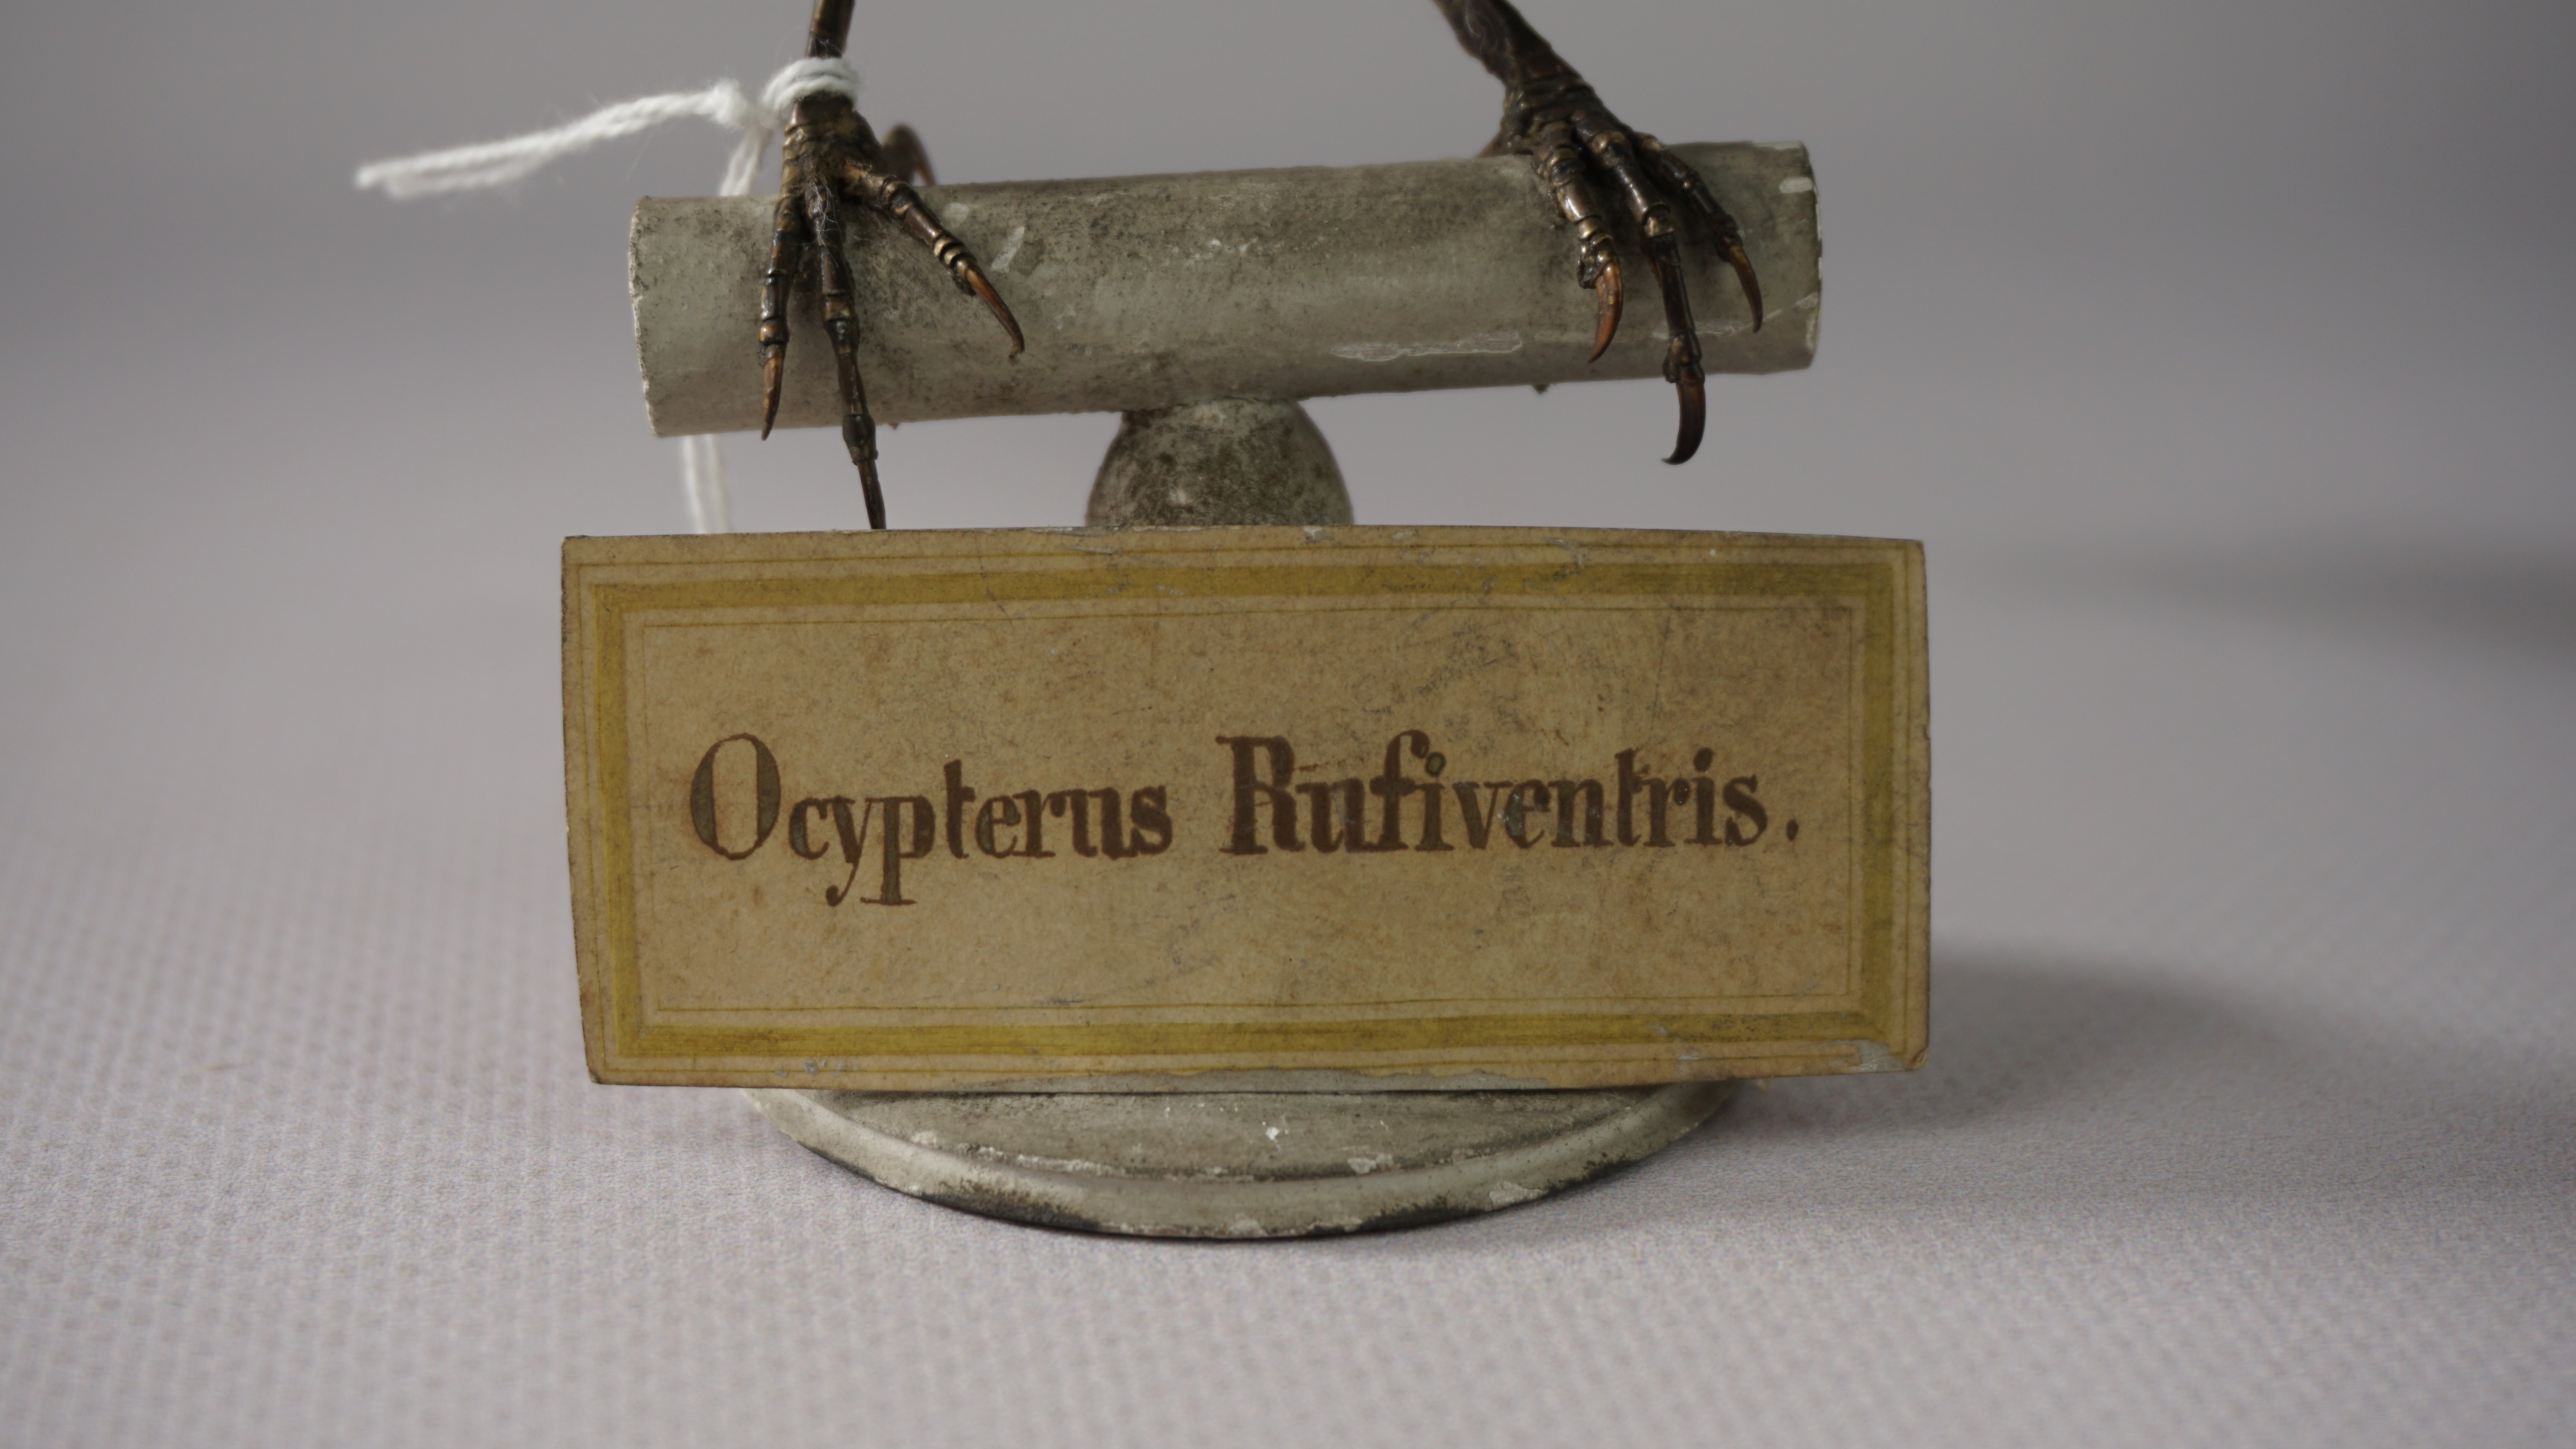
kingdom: Animalia
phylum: Chordata
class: Aves
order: Passeriformes
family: Artamidae
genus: Artamus
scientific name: Artamus superciliosus
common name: White-browed woodswallow
